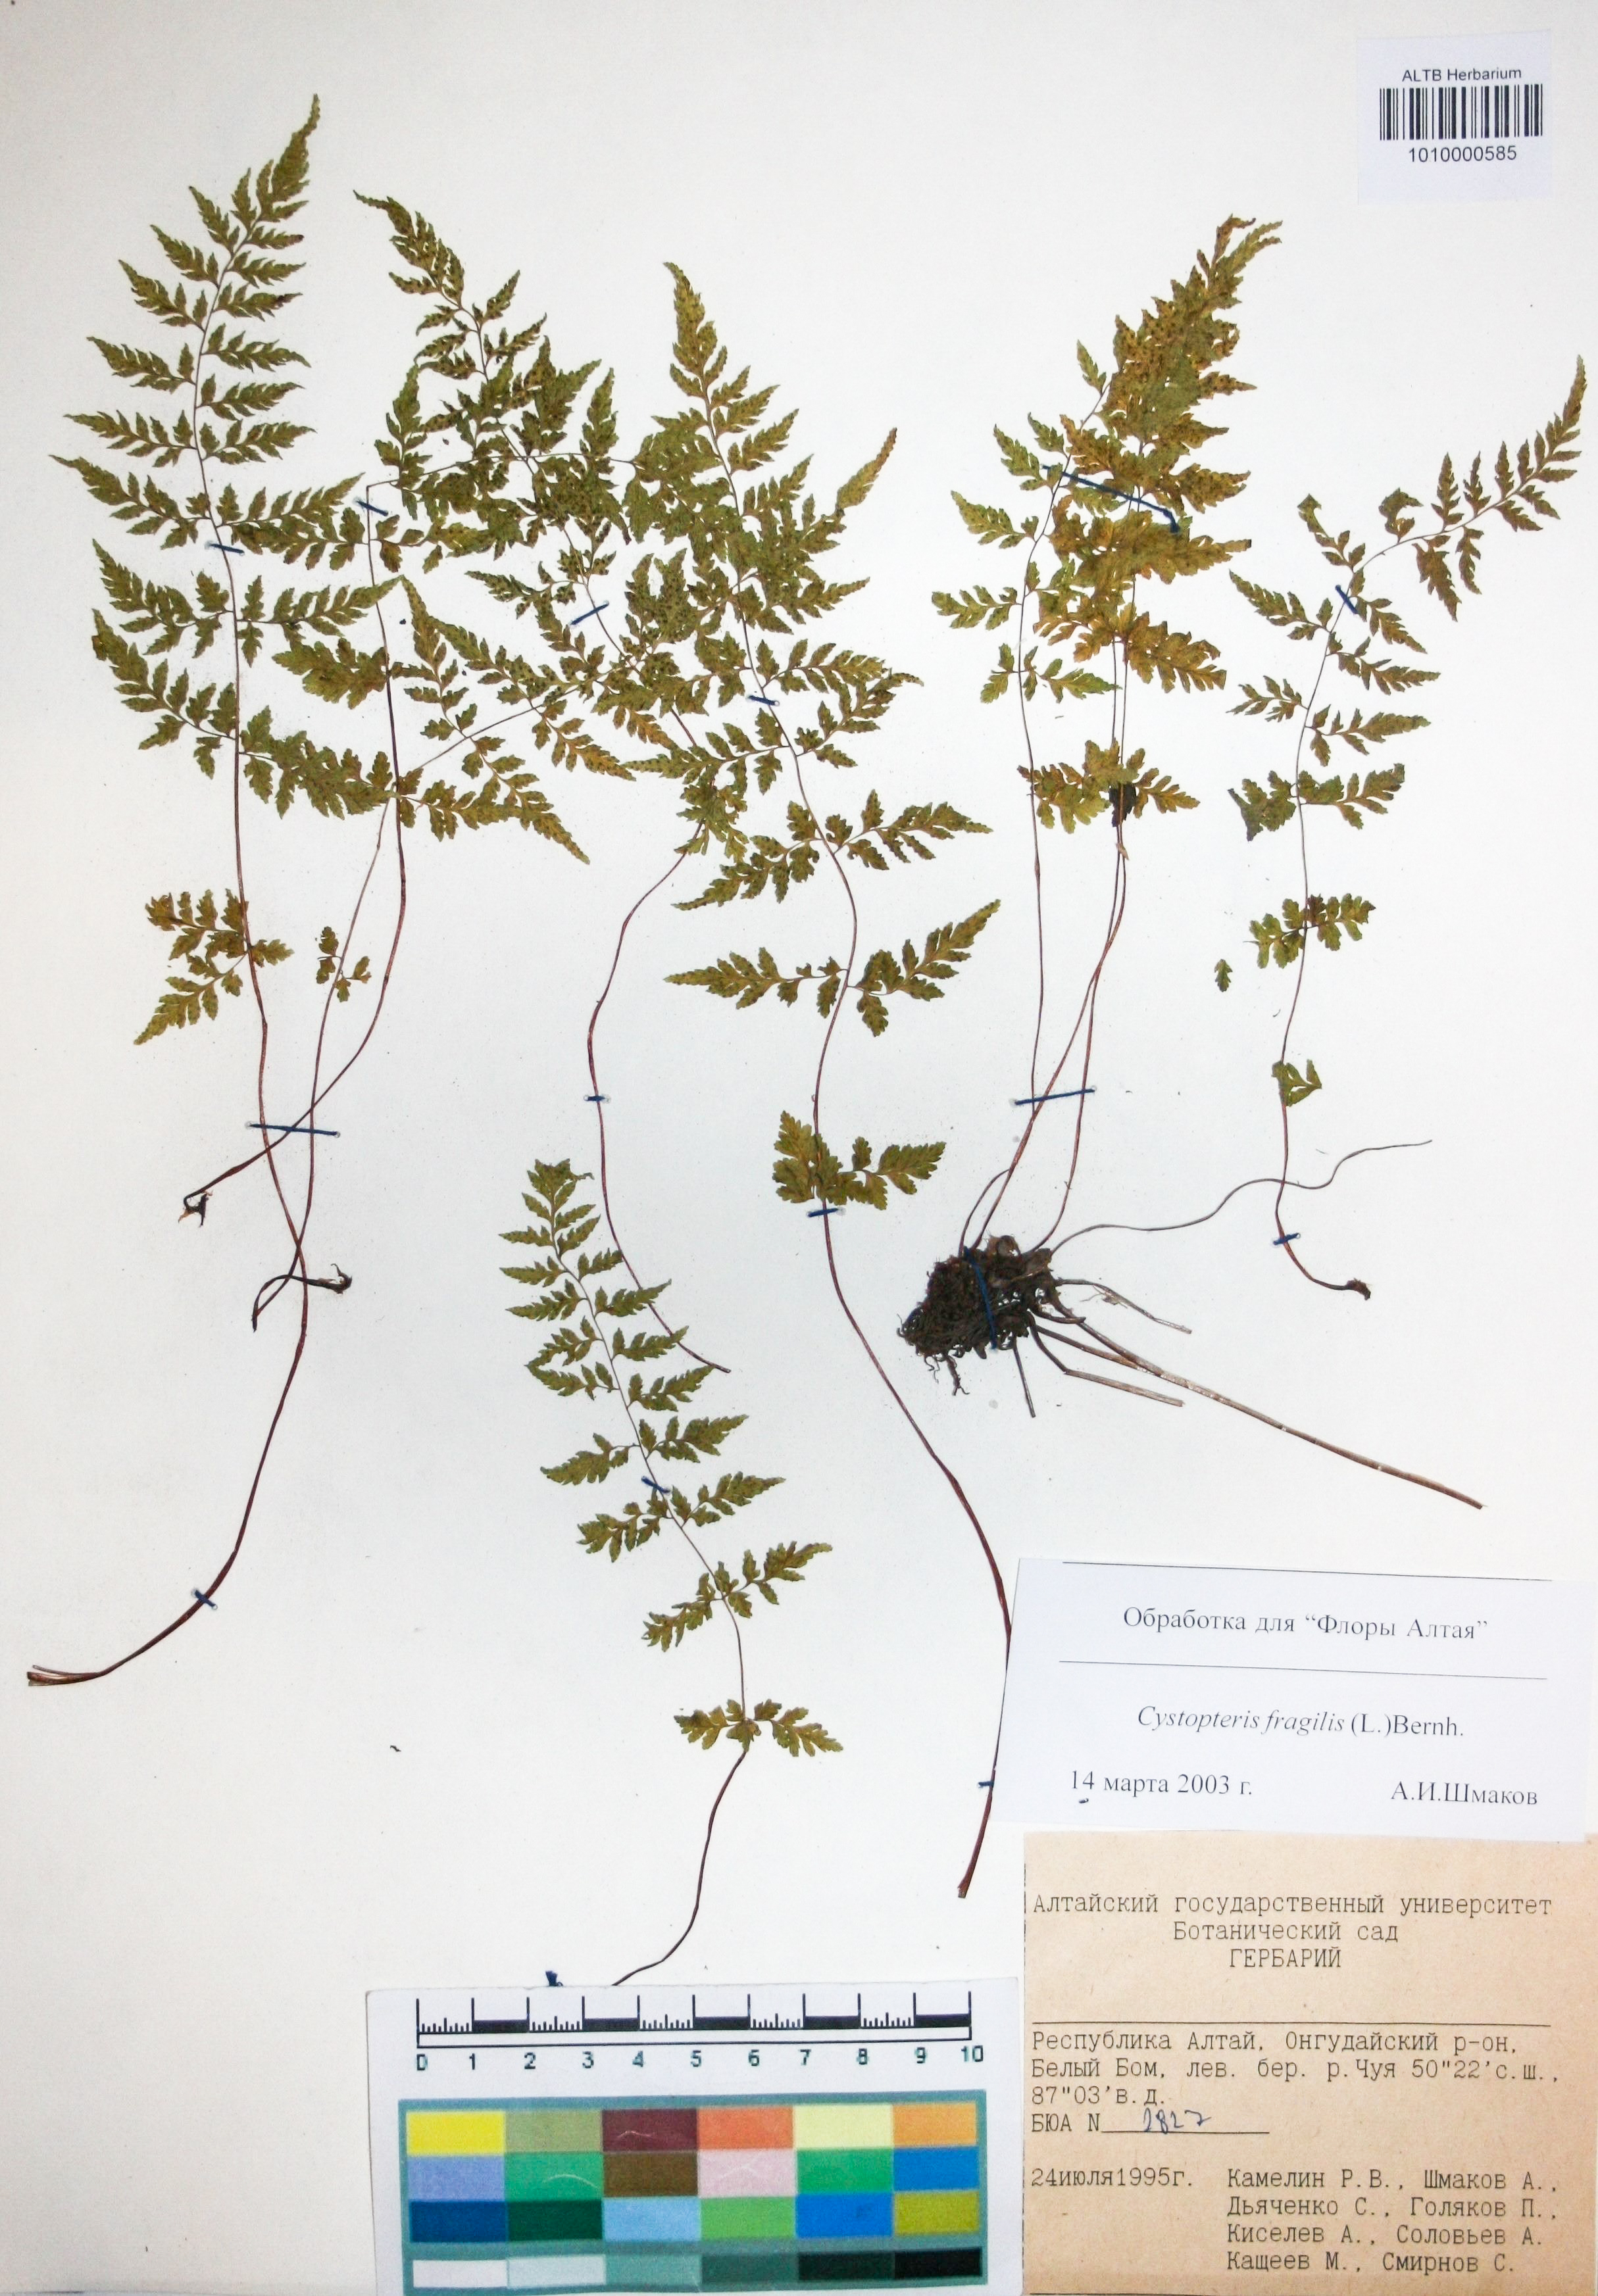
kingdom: Plantae
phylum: Tracheophyta
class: Polypodiopsida
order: Polypodiales
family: Cystopteridaceae
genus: Cystopteris
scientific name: Cystopteris fragilis
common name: Brittle bladder fern
